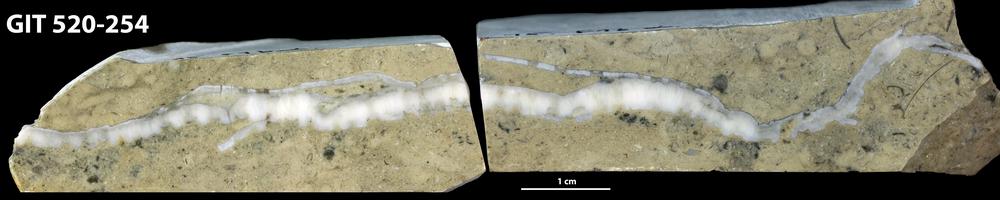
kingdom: Animalia
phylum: Cnidaria
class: Anthozoa
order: Heliolitina
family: Coccoserididae
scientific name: Coccoserididae
